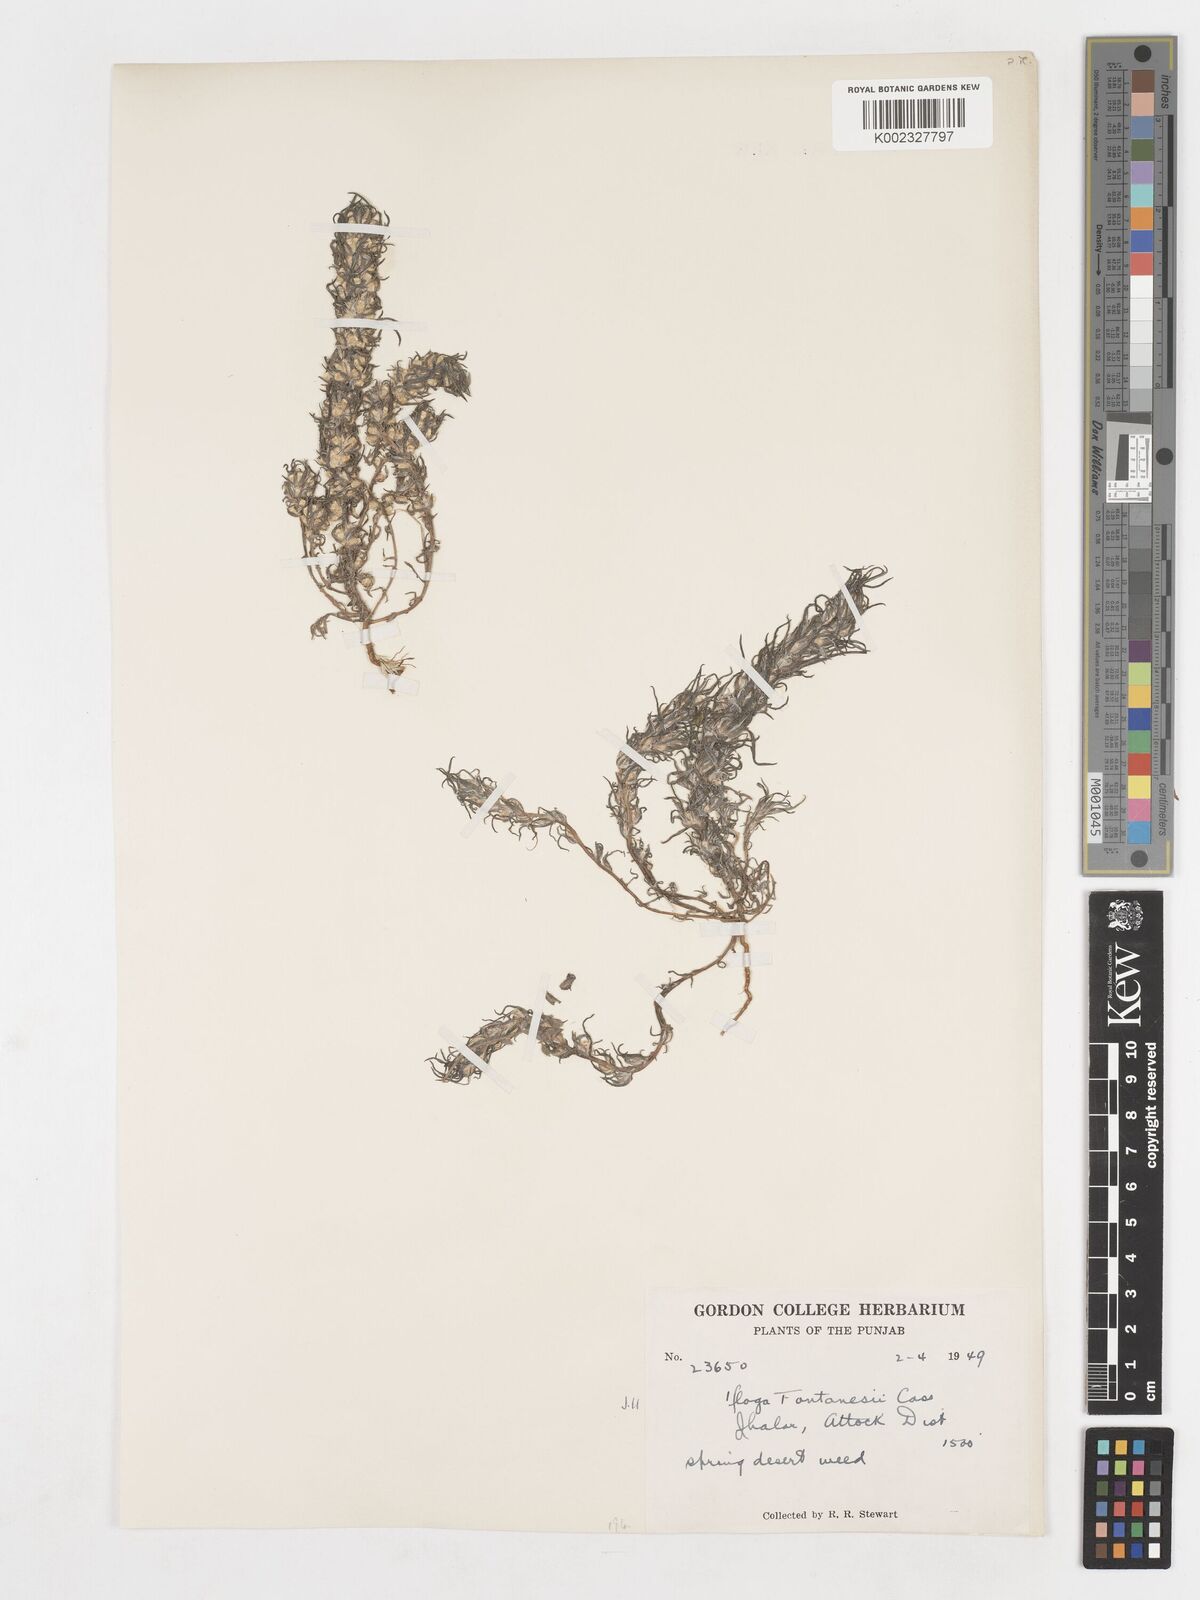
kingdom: Plantae
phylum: Tracheophyta
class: Magnoliopsida
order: Asterales
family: Asteraceae
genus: Ifloga
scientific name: Ifloga spicata
